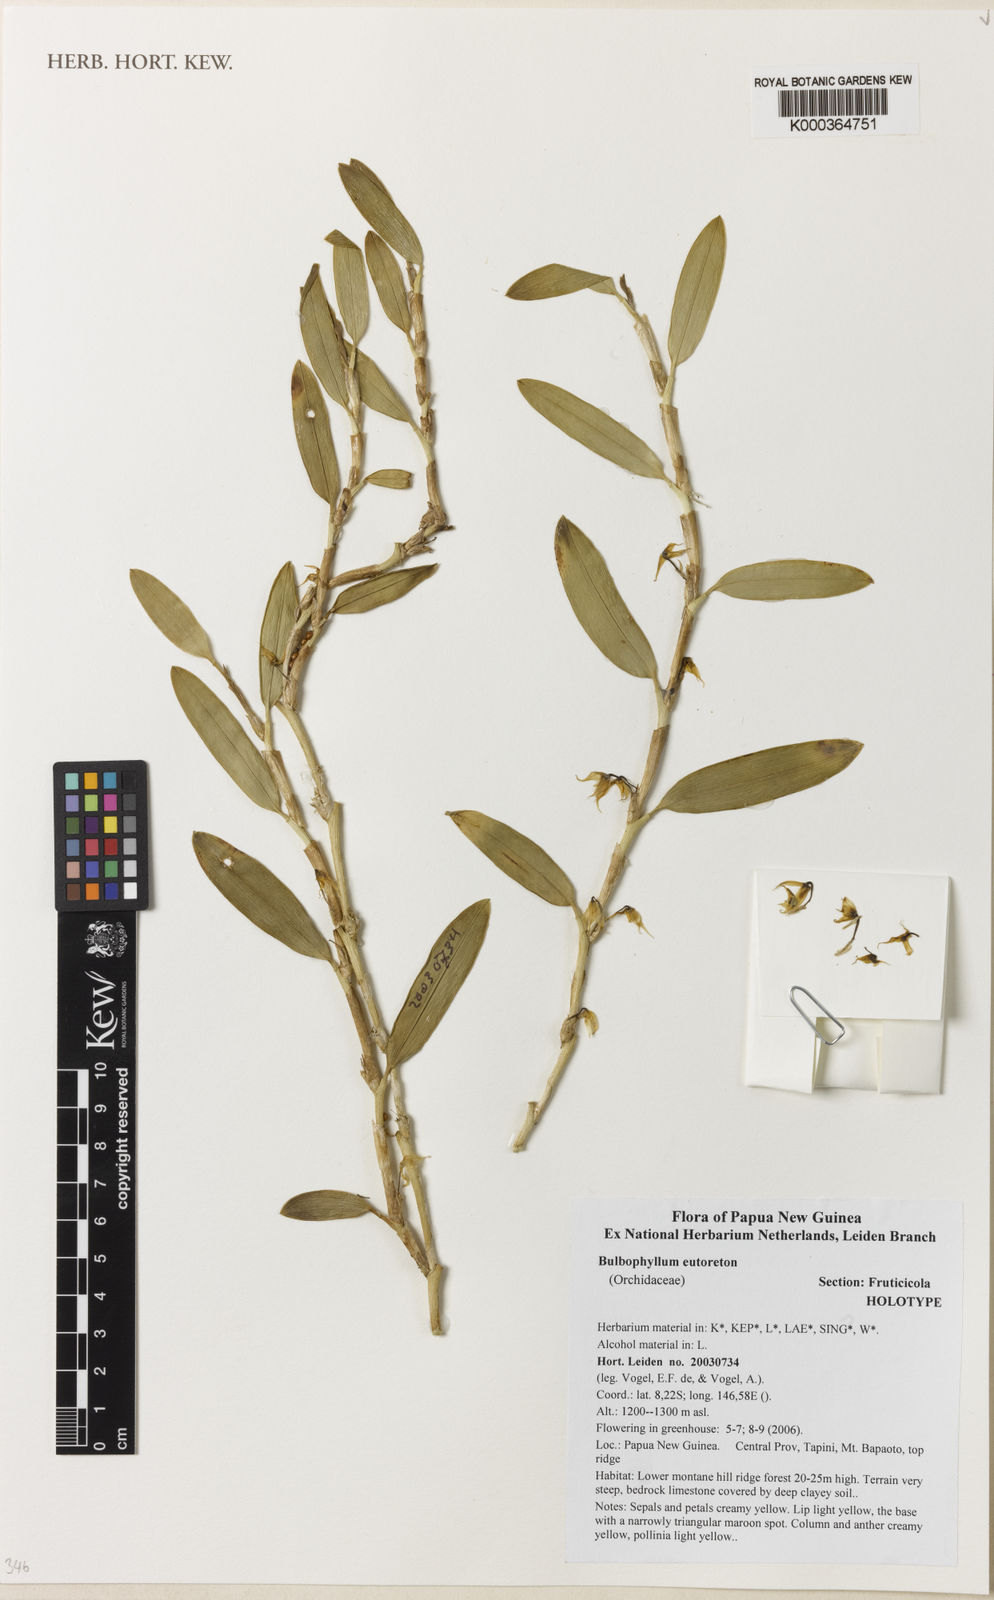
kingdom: Plantae
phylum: Tracheophyta
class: Liliopsida
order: Asparagales
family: Orchidaceae
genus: Bulbophyllum
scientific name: Bulbophyllum eutoreton
